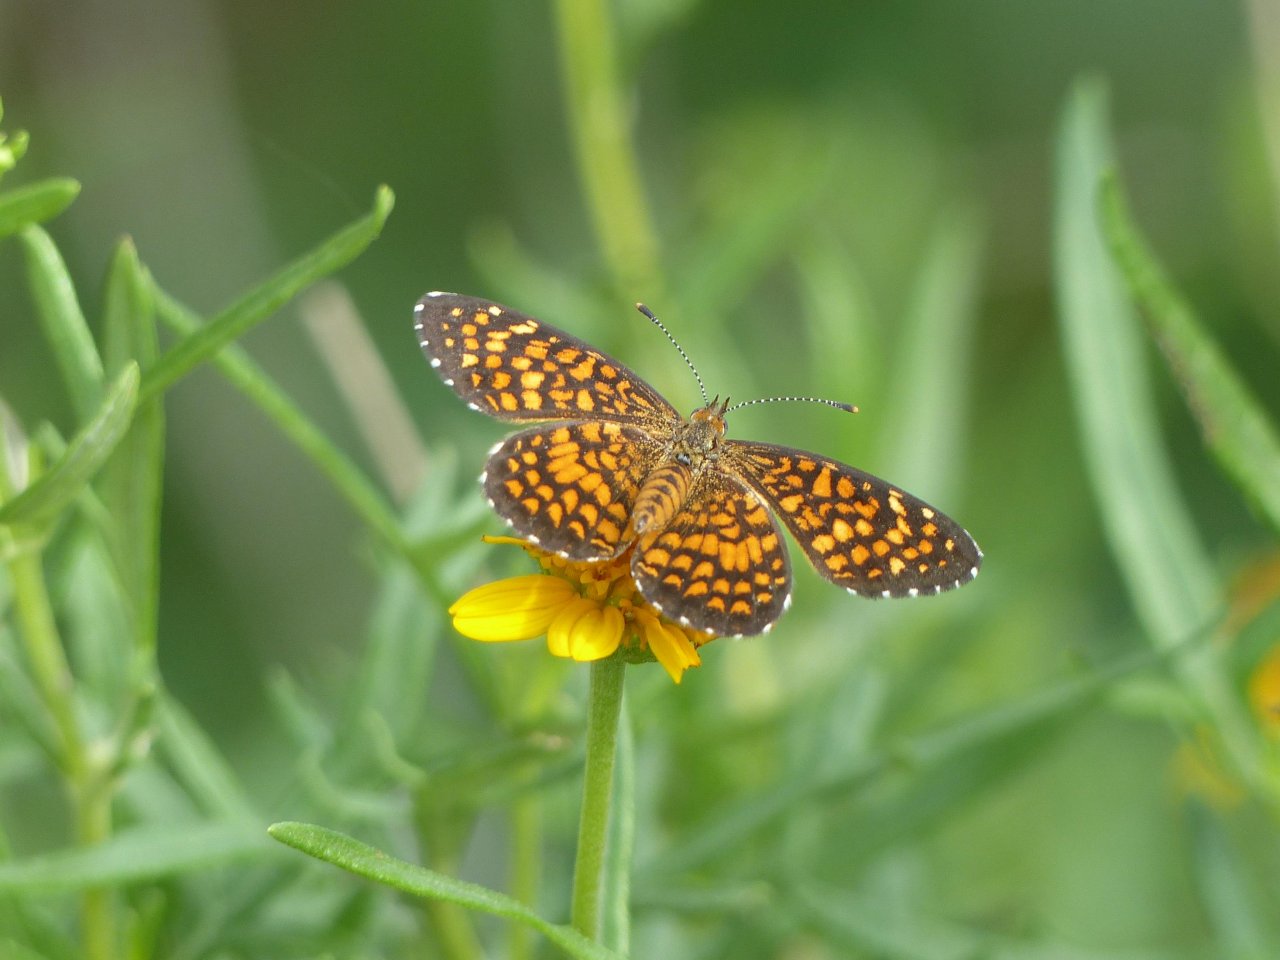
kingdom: Animalia
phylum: Arthropoda
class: Insecta
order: Lepidoptera
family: Nymphalidae
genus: Texola
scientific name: Texola elada
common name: Elada Checkerspot
